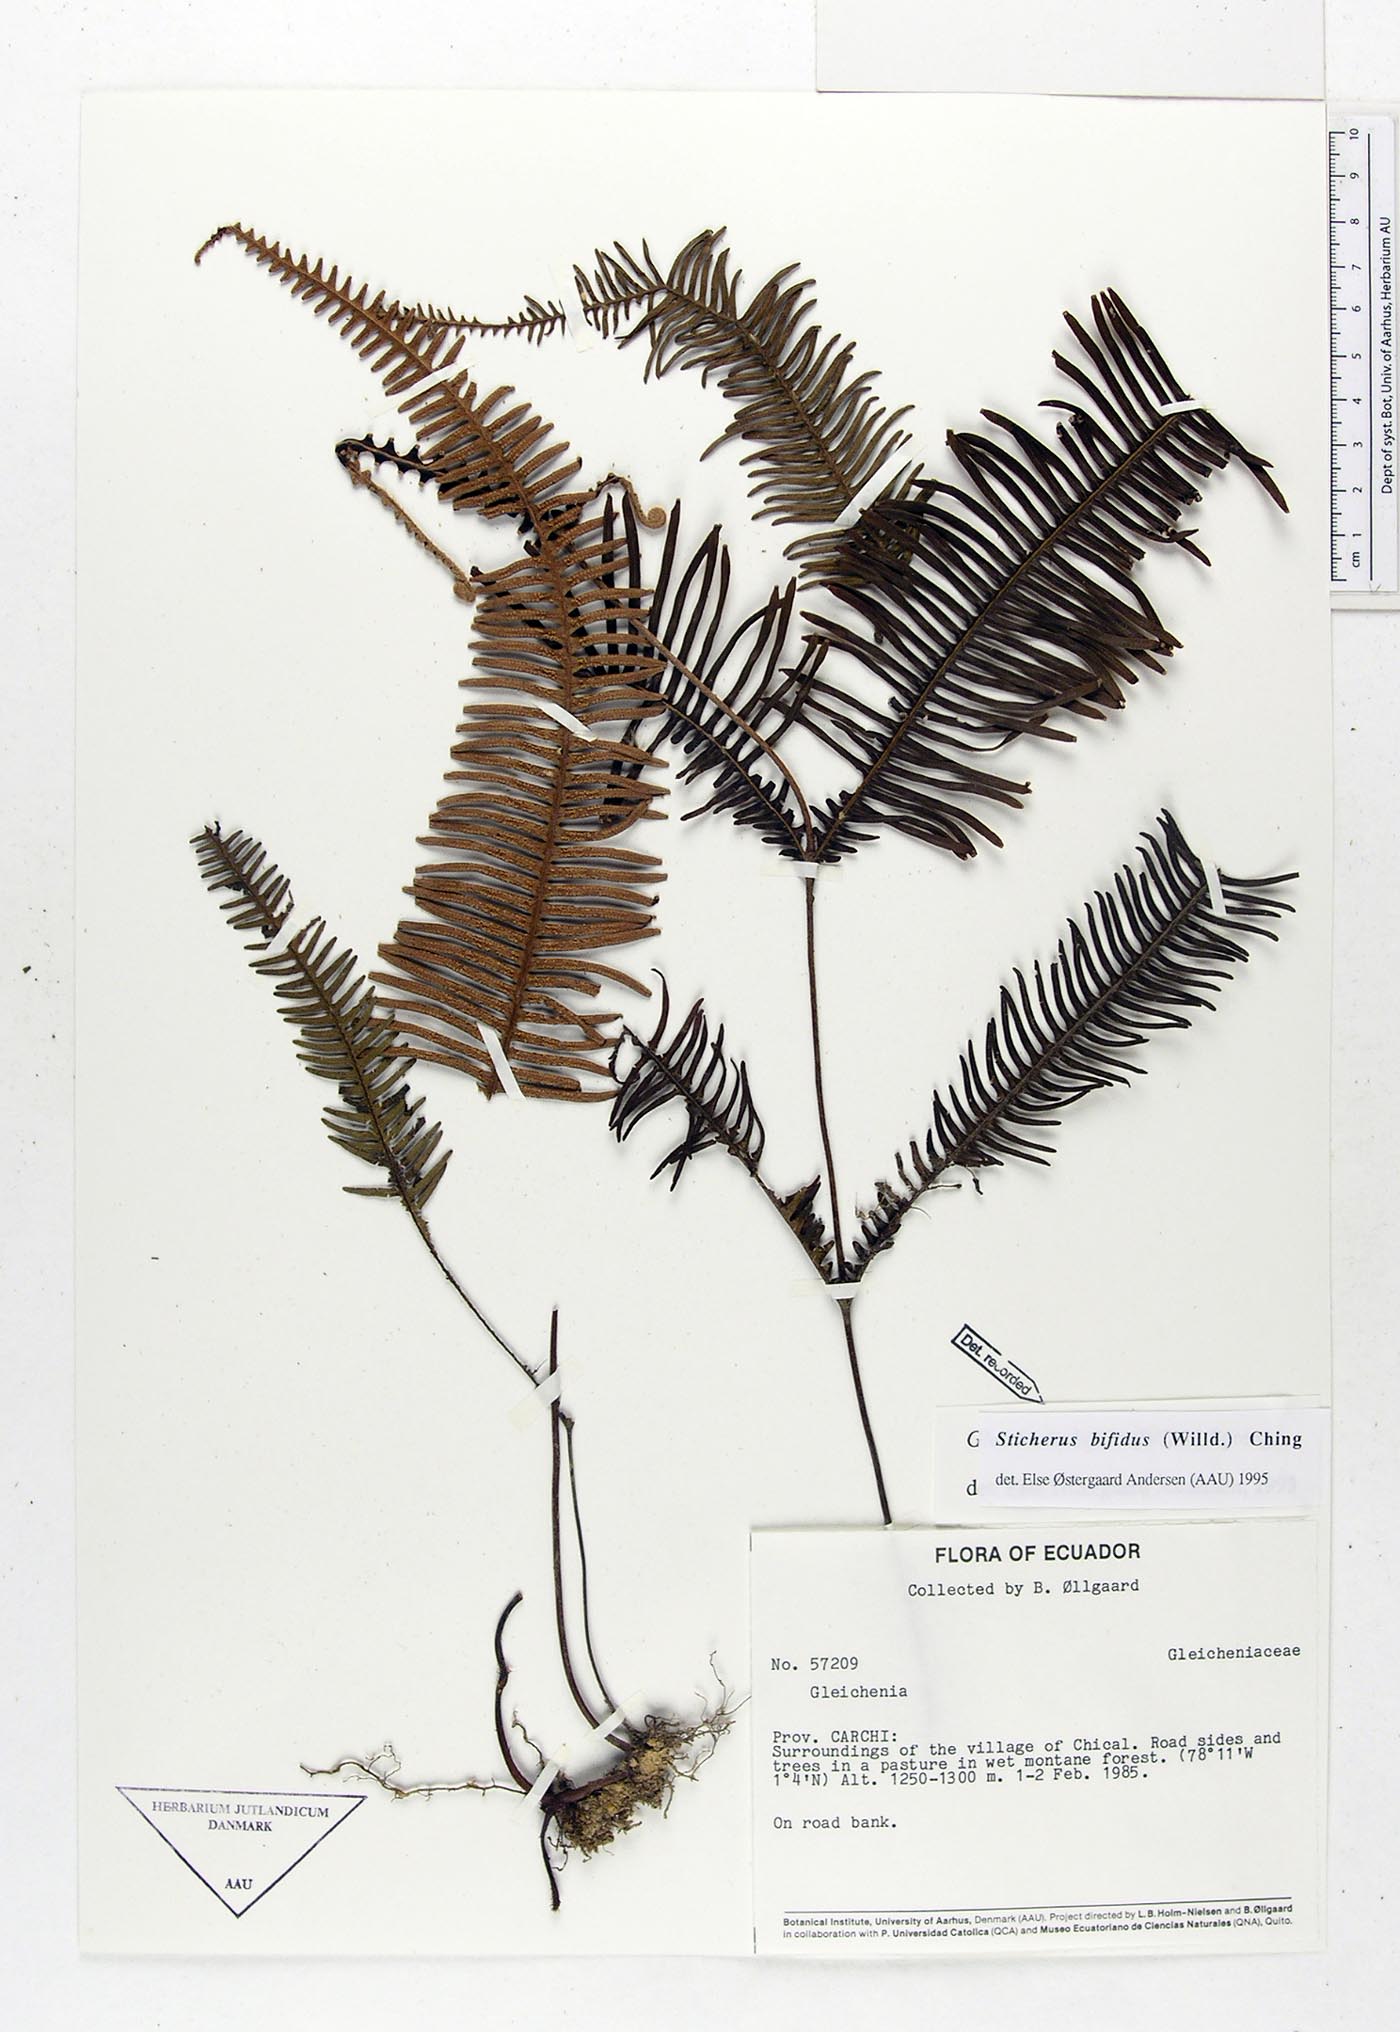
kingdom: Plantae
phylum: Tracheophyta
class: Polypodiopsida
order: Gleicheniales
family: Gleicheniaceae
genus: Sticherus
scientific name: Sticherus bifidus
